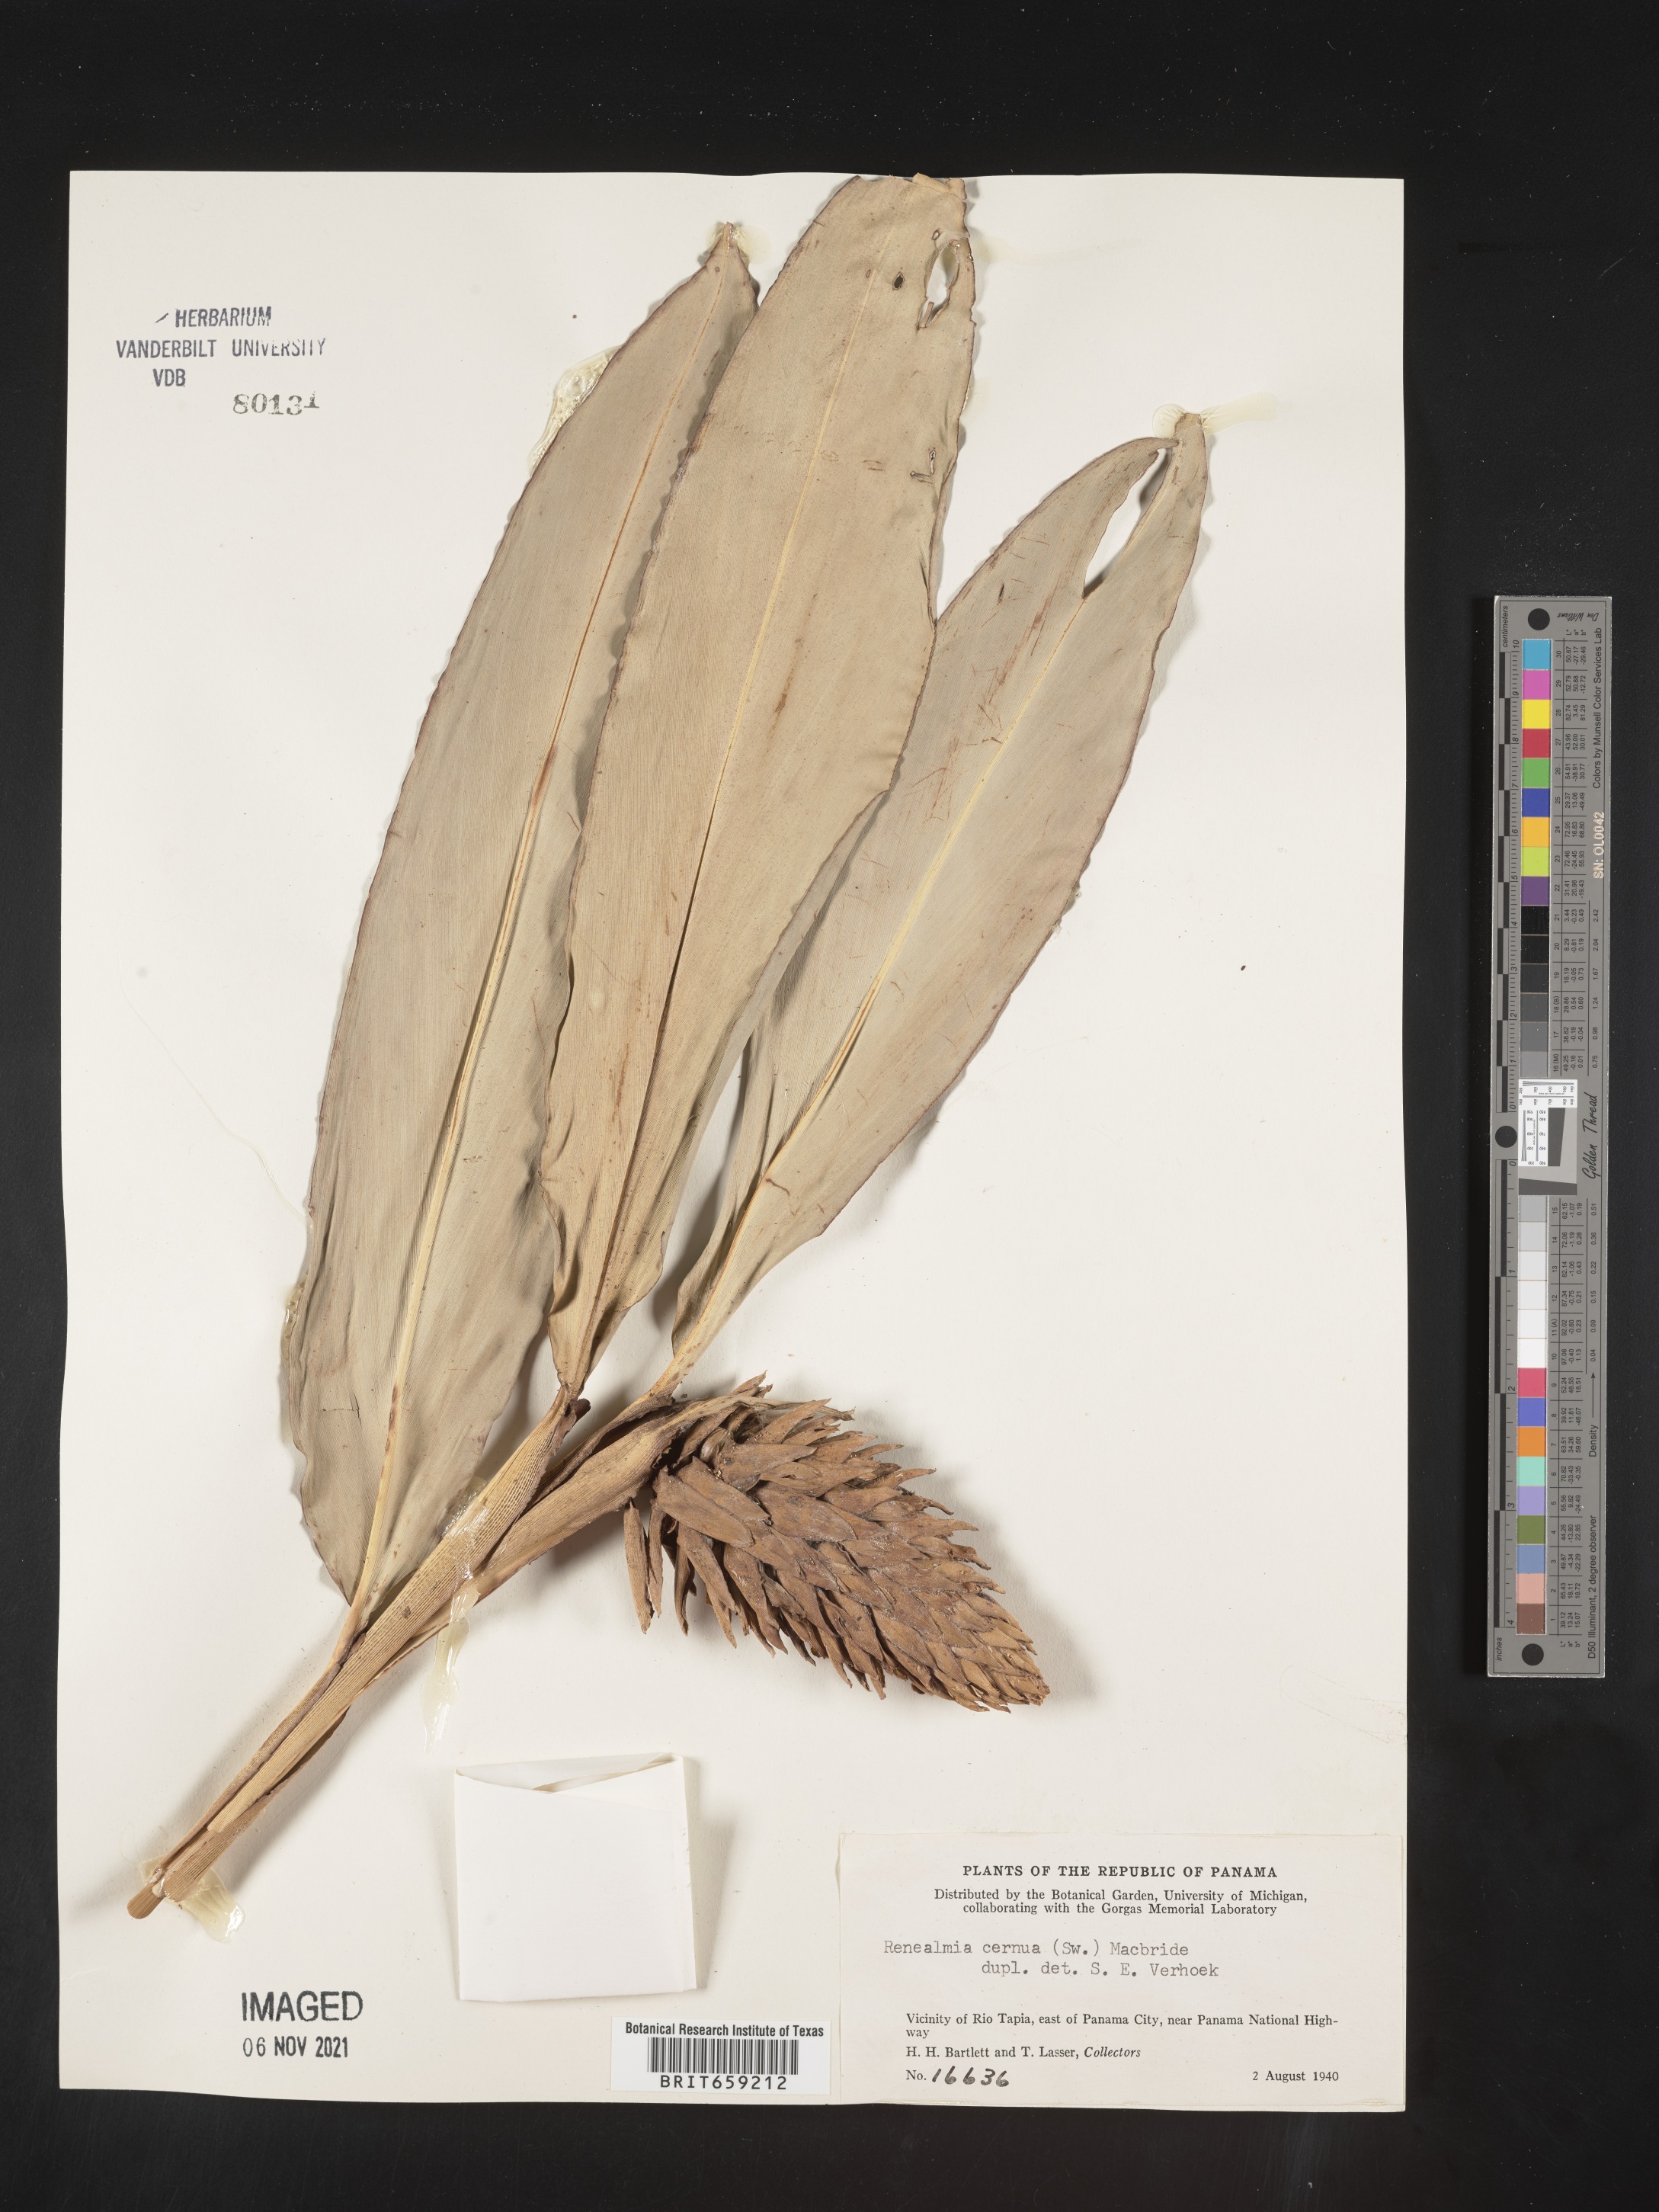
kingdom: Plantae
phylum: Tracheophyta
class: Liliopsida
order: Zingiberales
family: Zingiberaceae
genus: Renealmia
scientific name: Renealmia
